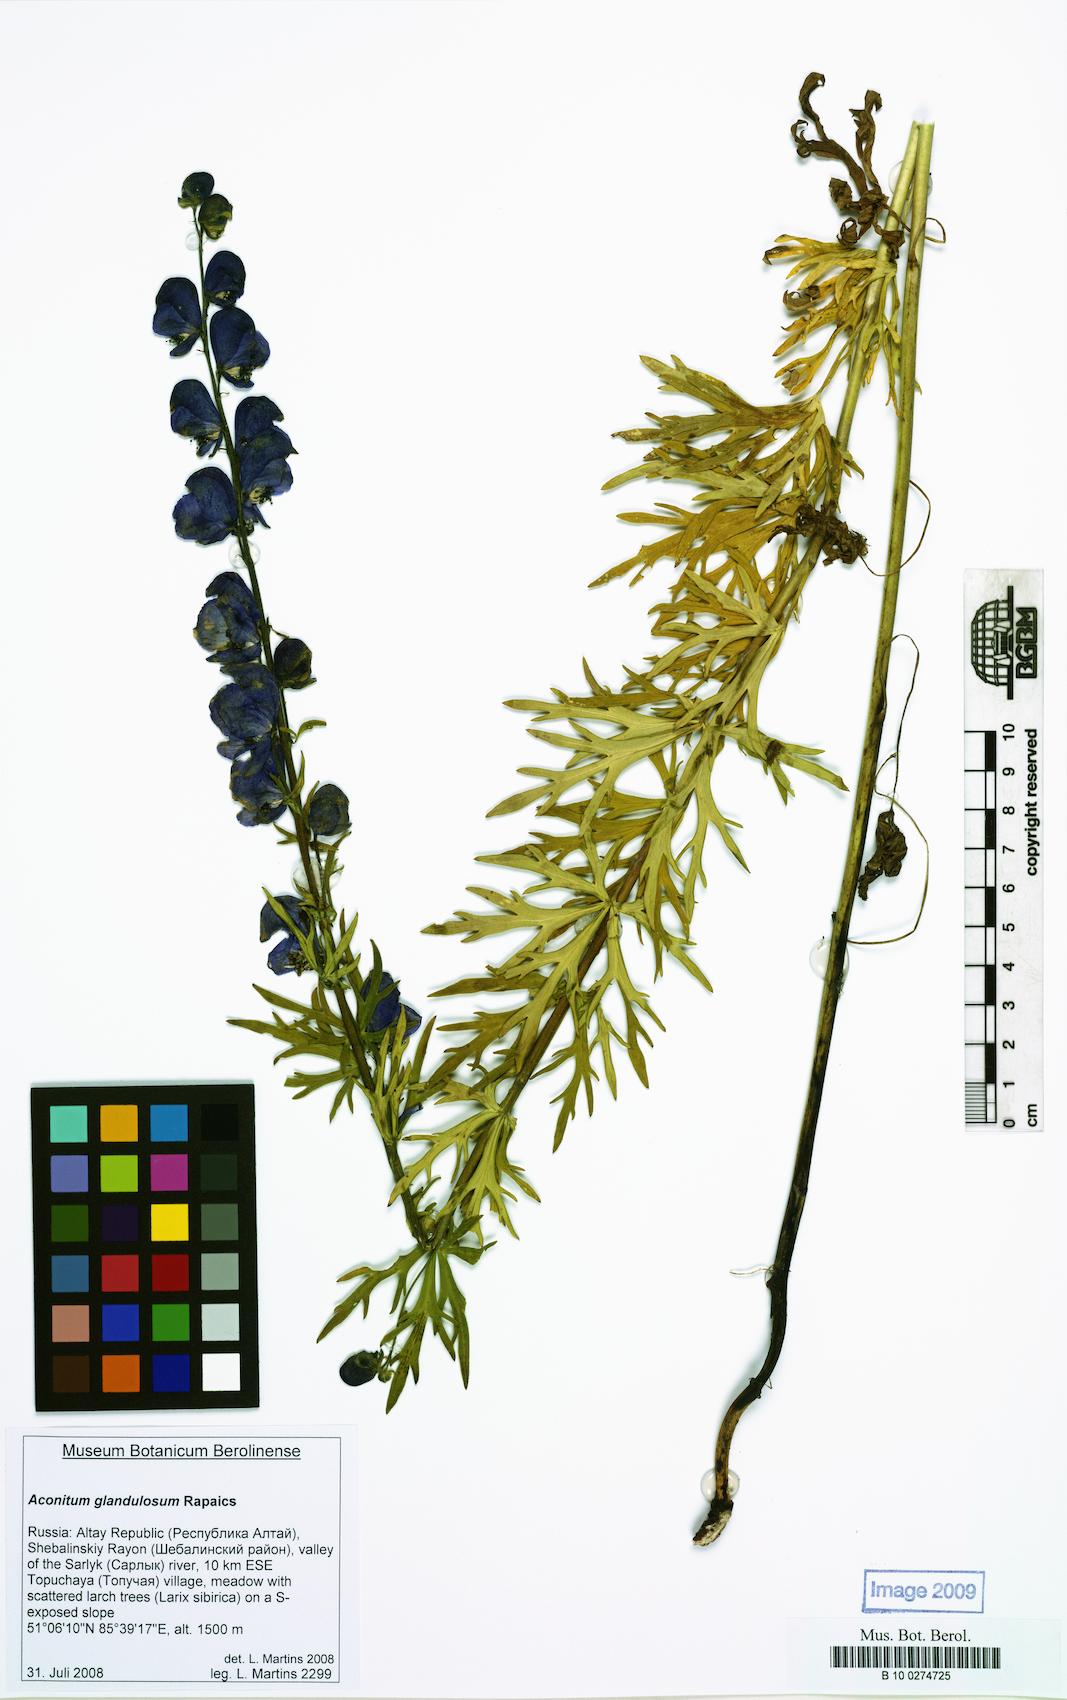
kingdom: Plantae
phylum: Tracheophyta
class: Magnoliopsida
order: Ranunculales
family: Ranunculaceae
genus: Aconitum
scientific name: Aconitum glandulosum
